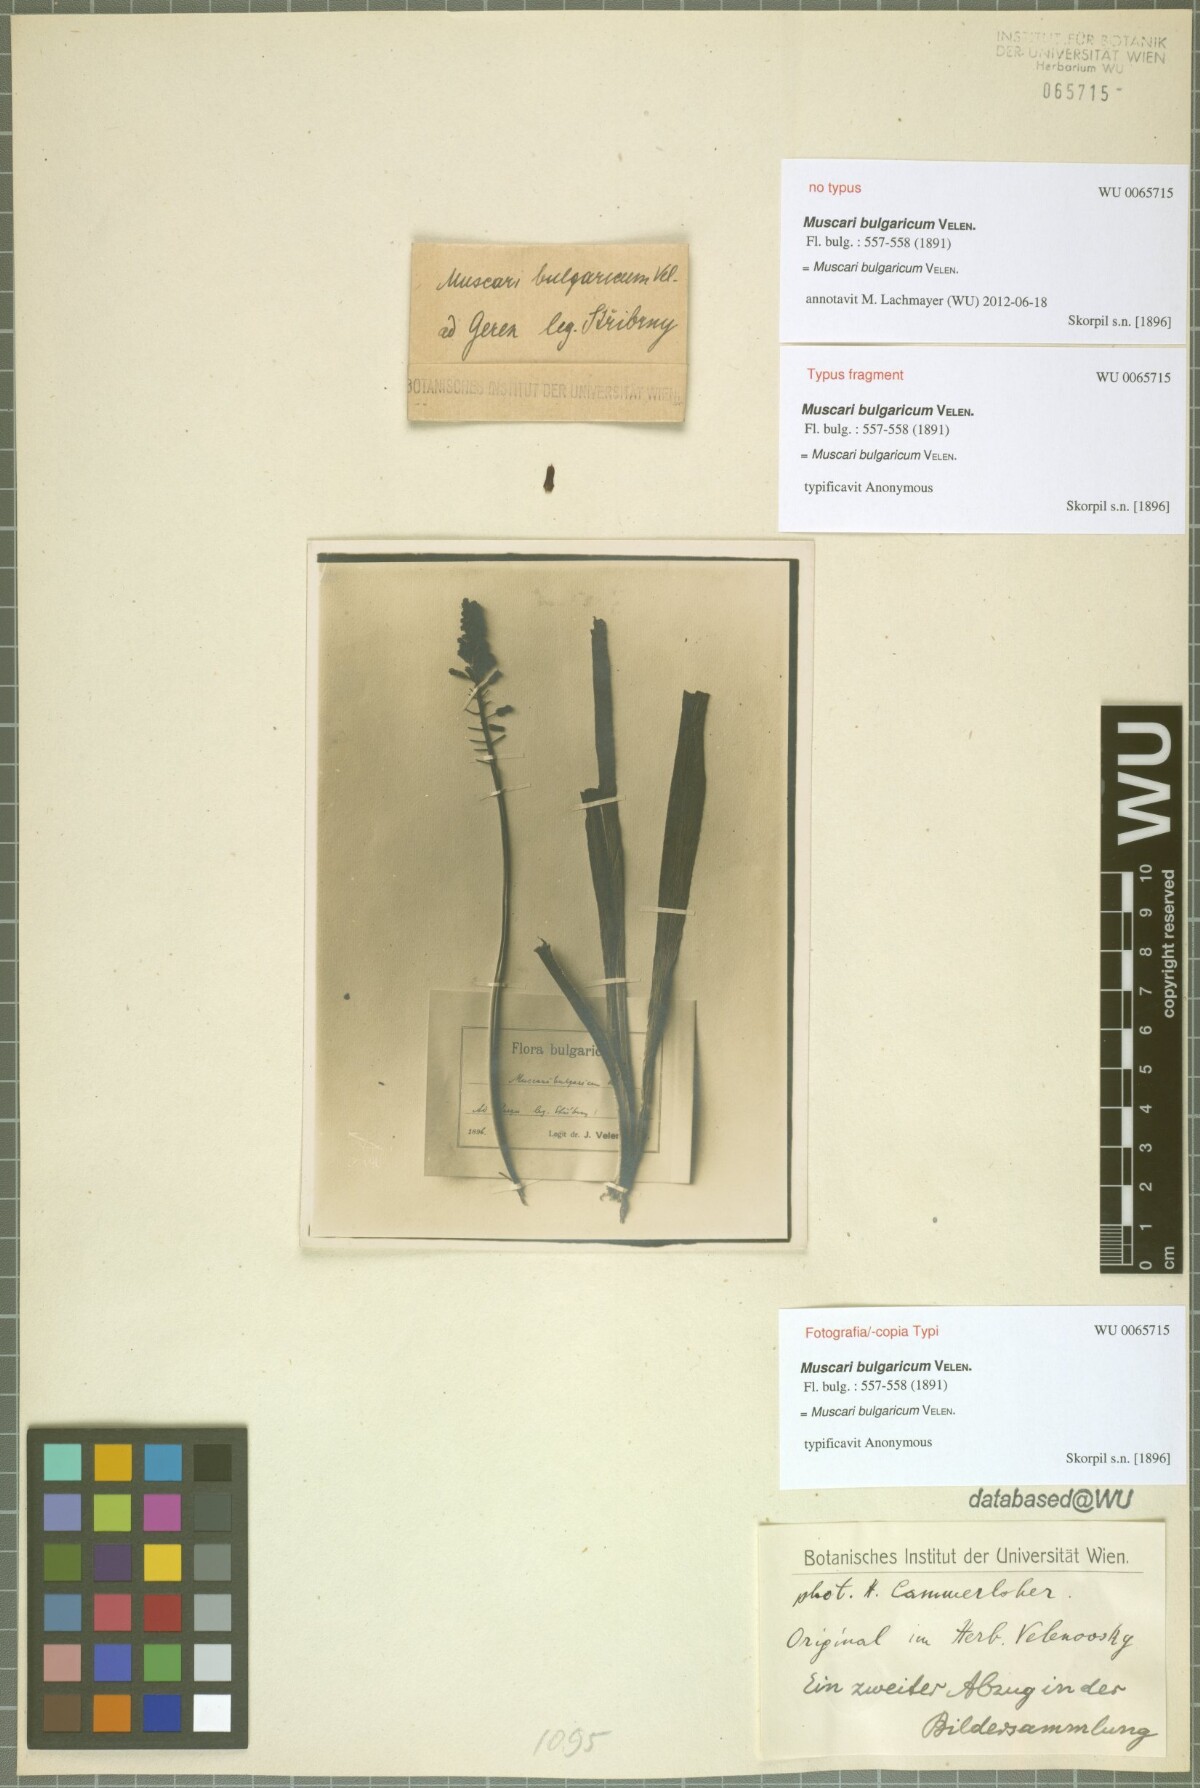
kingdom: Plantae
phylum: Tracheophyta
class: Liliopsida
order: Asparagales
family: Asparagaceae
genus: Muscari
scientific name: Muscari comosum
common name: Tassel hyacinth
